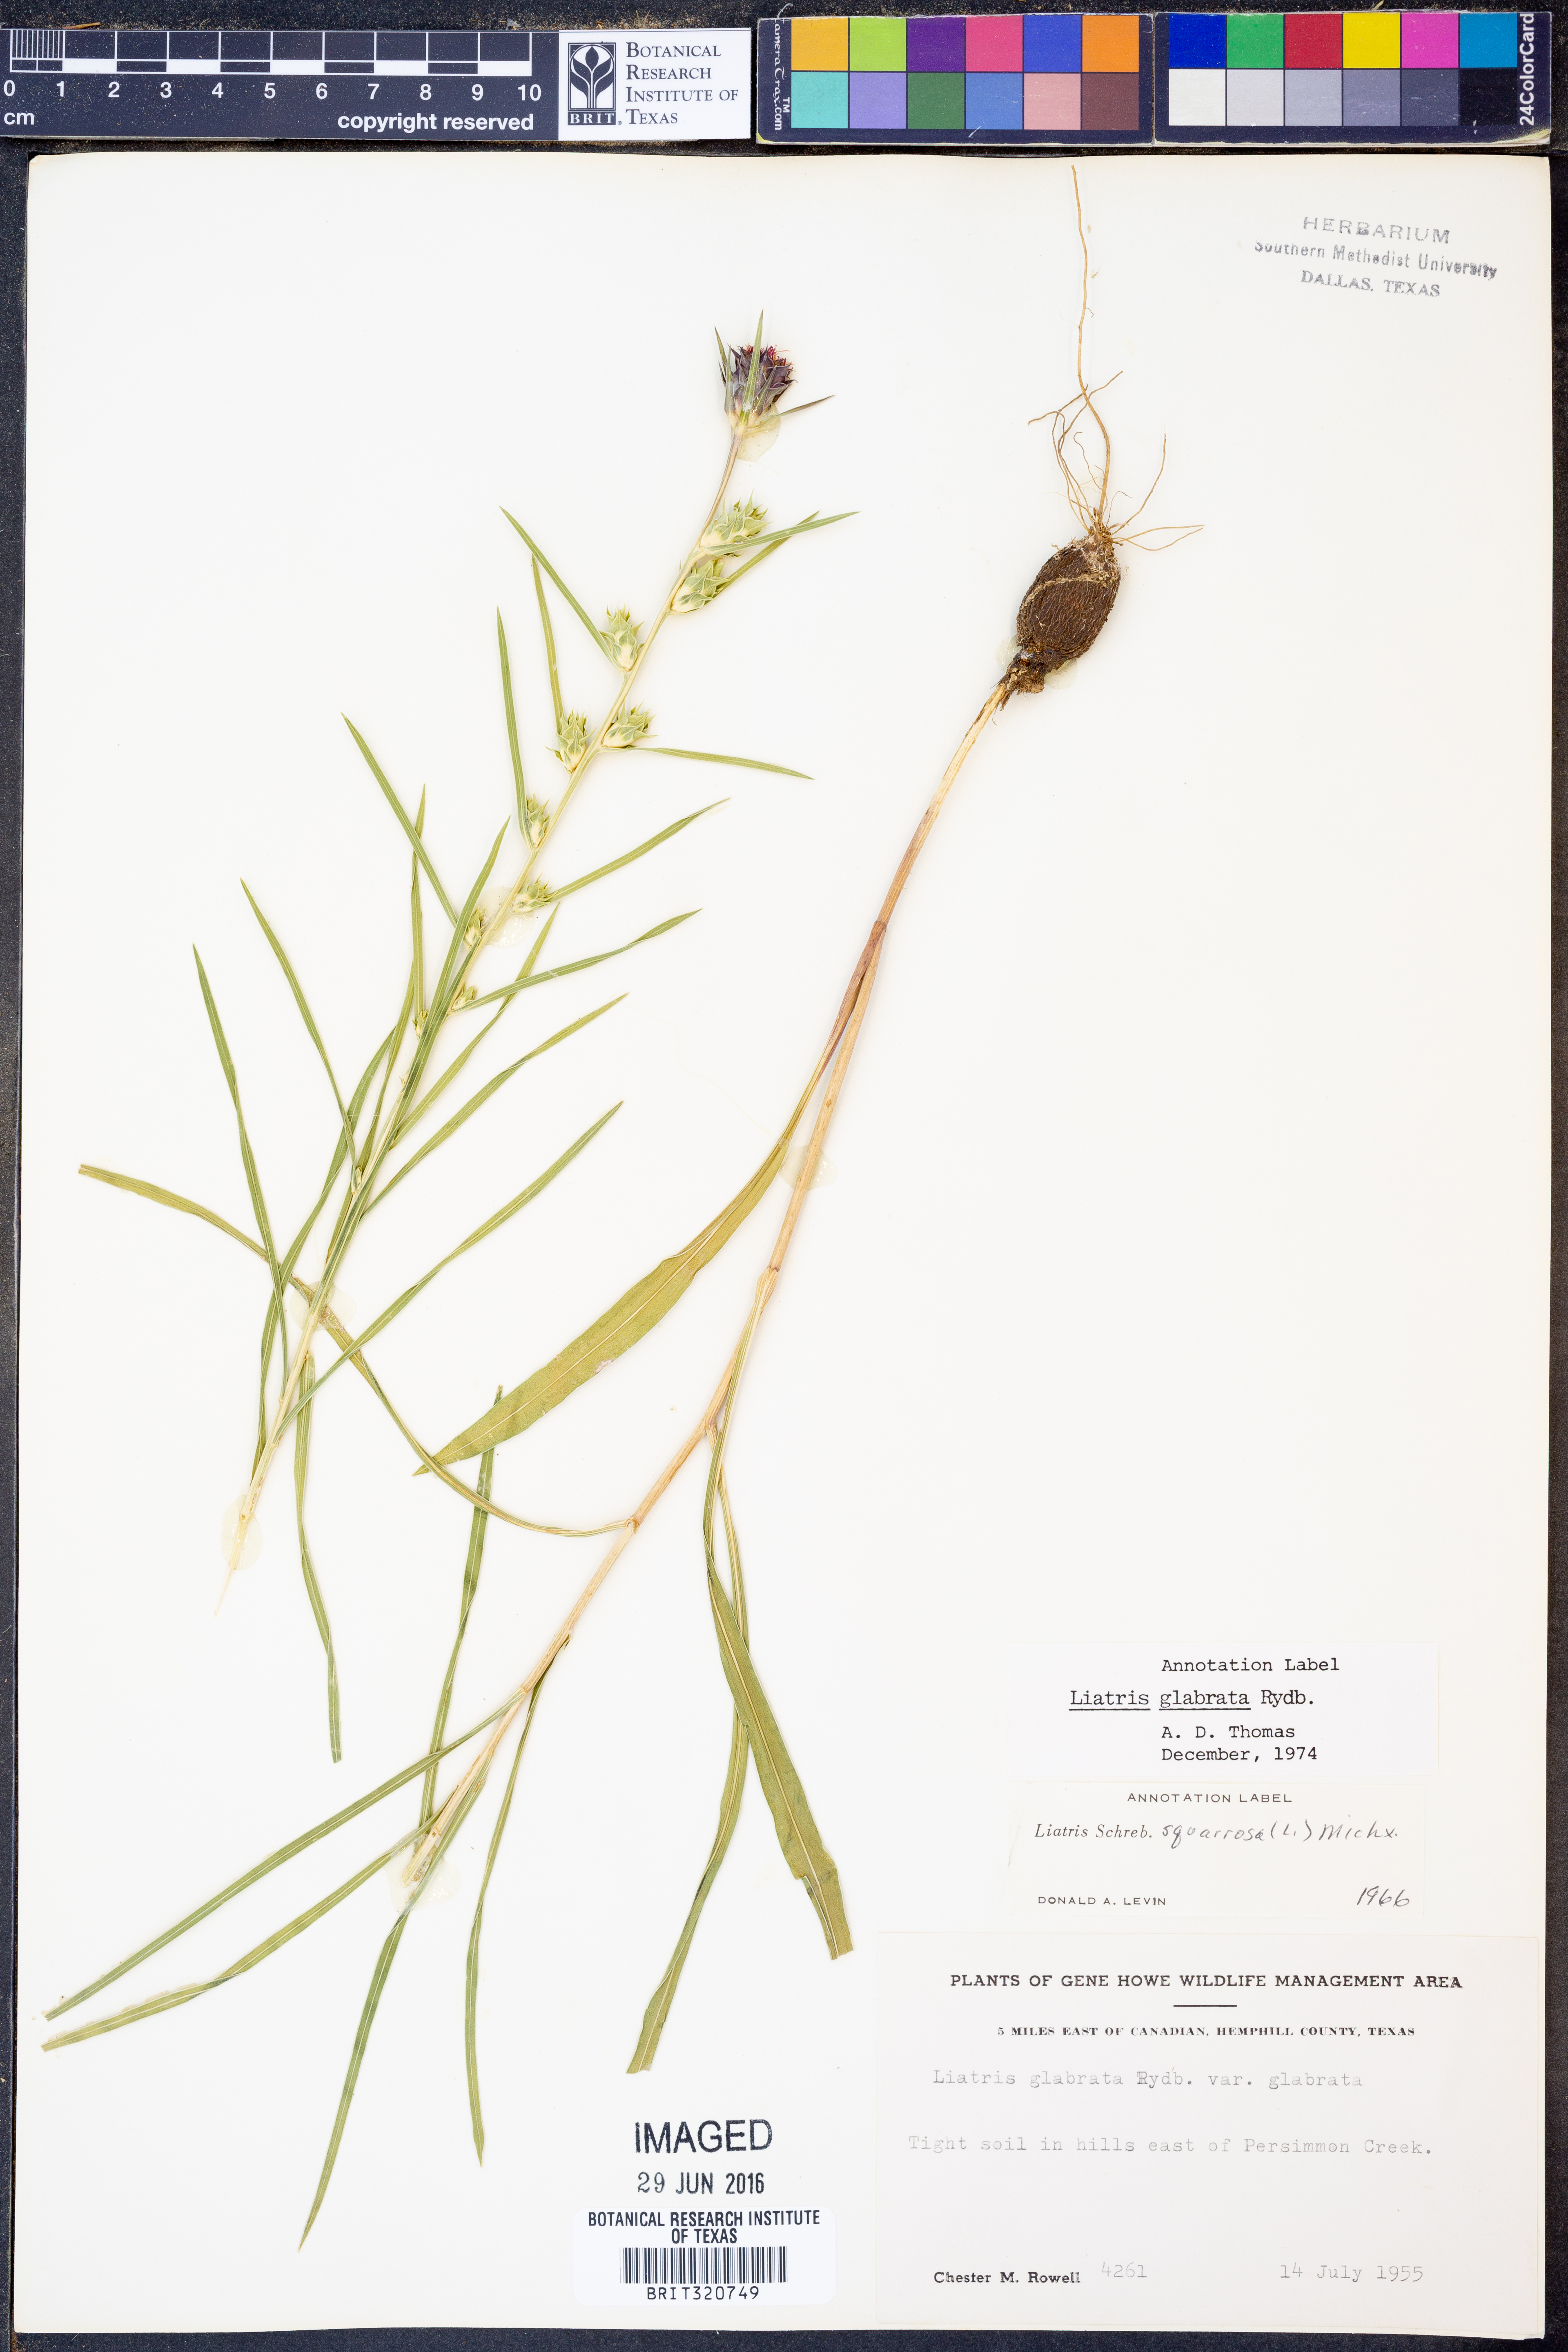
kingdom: Plantae
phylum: Tracheophyta
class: Magnoliopsida
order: Asterales
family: Asteraceae
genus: Liatris
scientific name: Liatris spicata
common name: Florist gayfeather
